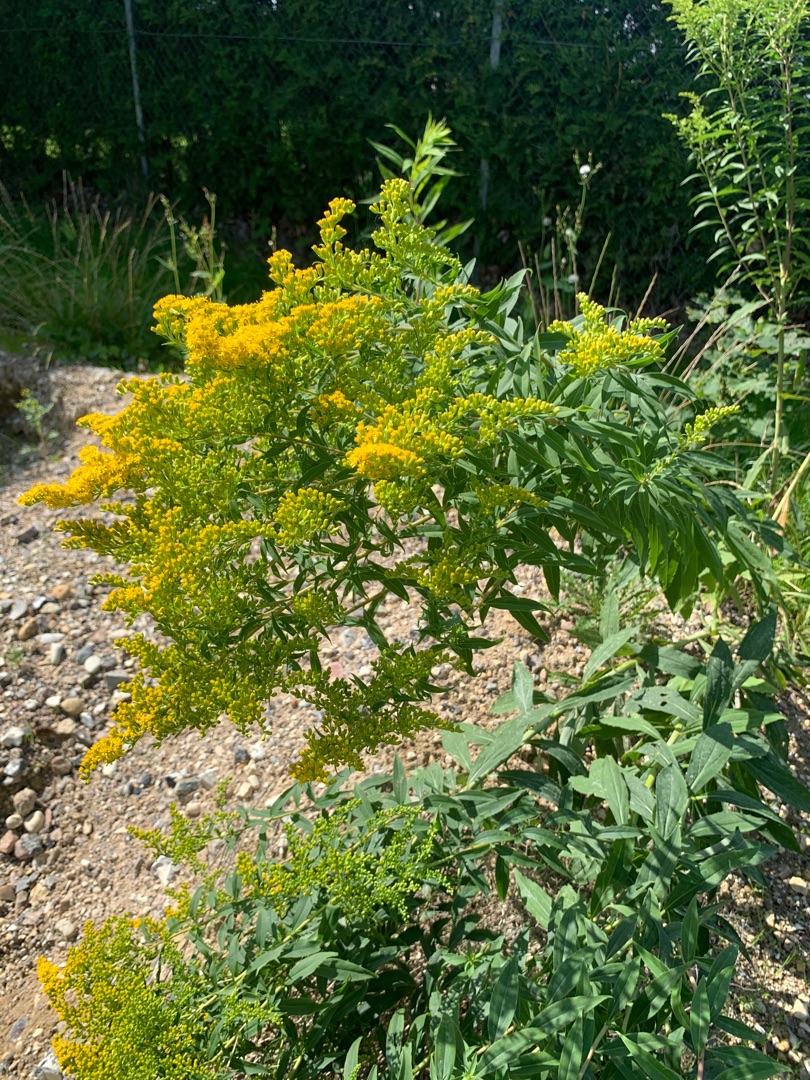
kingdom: Plantae
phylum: Tracheophyta
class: Magnoliopsida
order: Asterales
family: Asteraceae
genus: Solidago
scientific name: Solidago gigantea
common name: Sildig gyldenris
